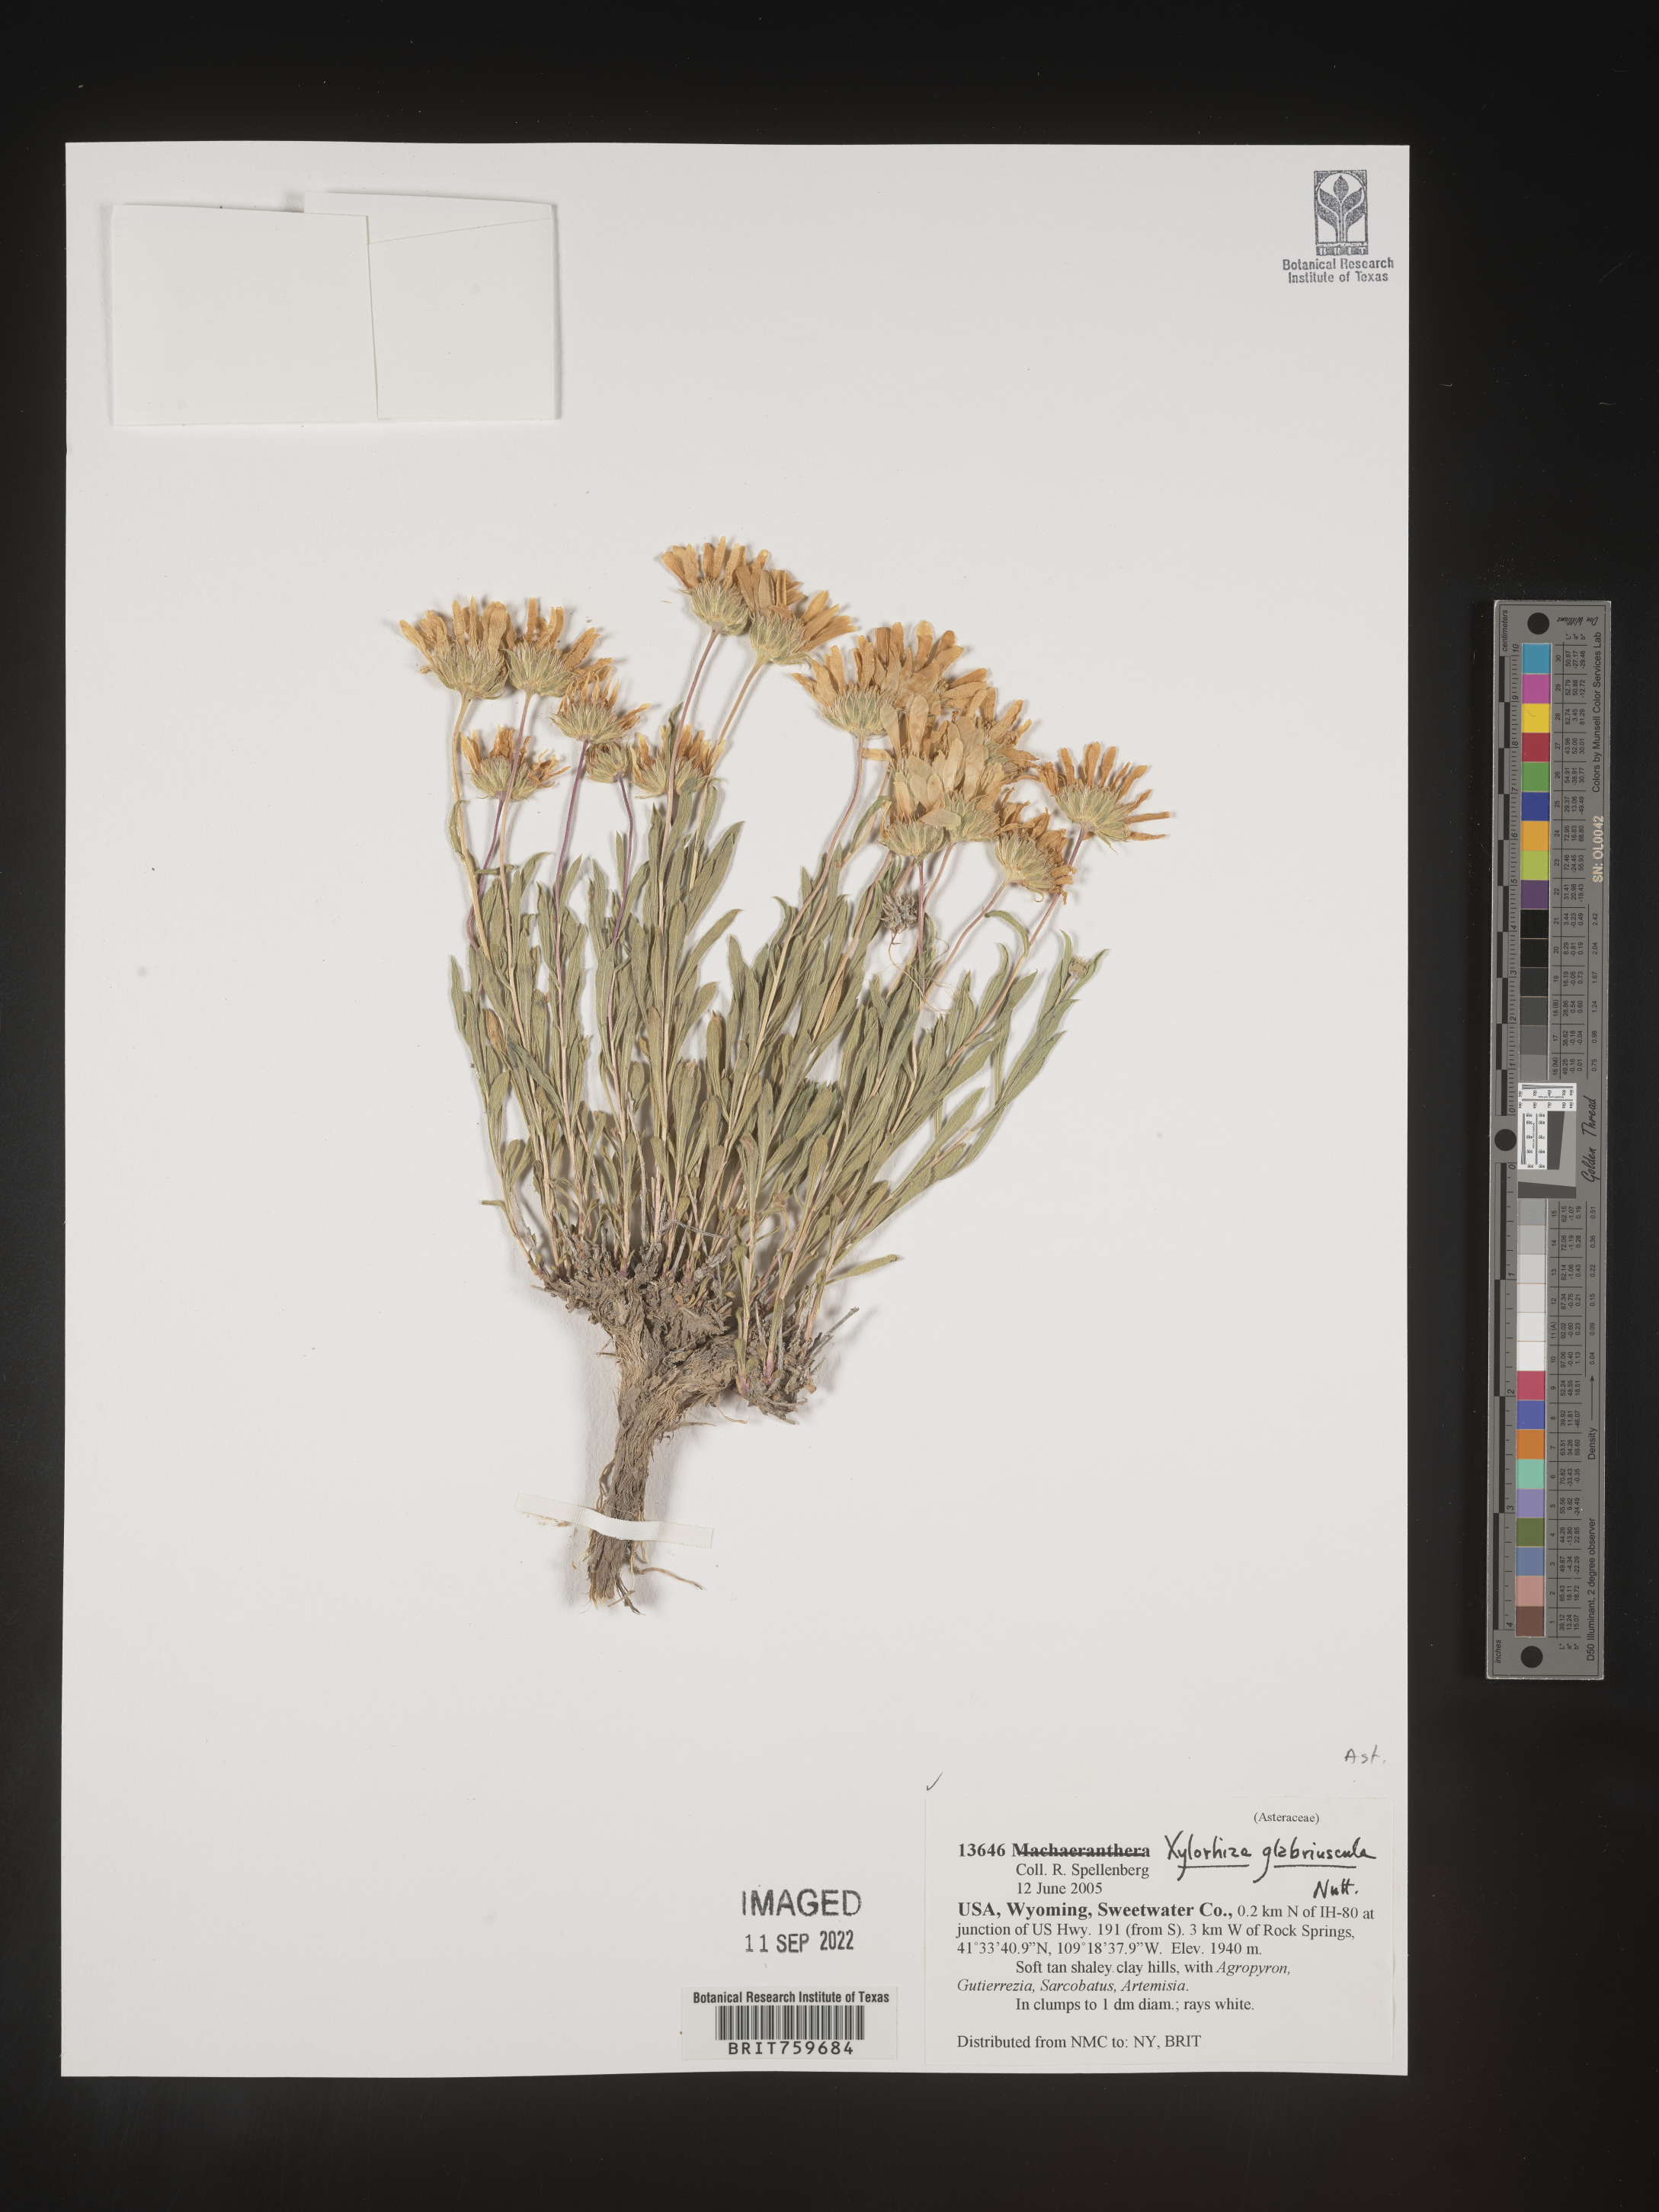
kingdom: Plantae
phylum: Tracheophyta
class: Magnoliopsida
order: Asterales
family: Asteraceae
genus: Xylorhiza
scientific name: Xylorhiza glabriuscula
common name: Smooth woody-aster
